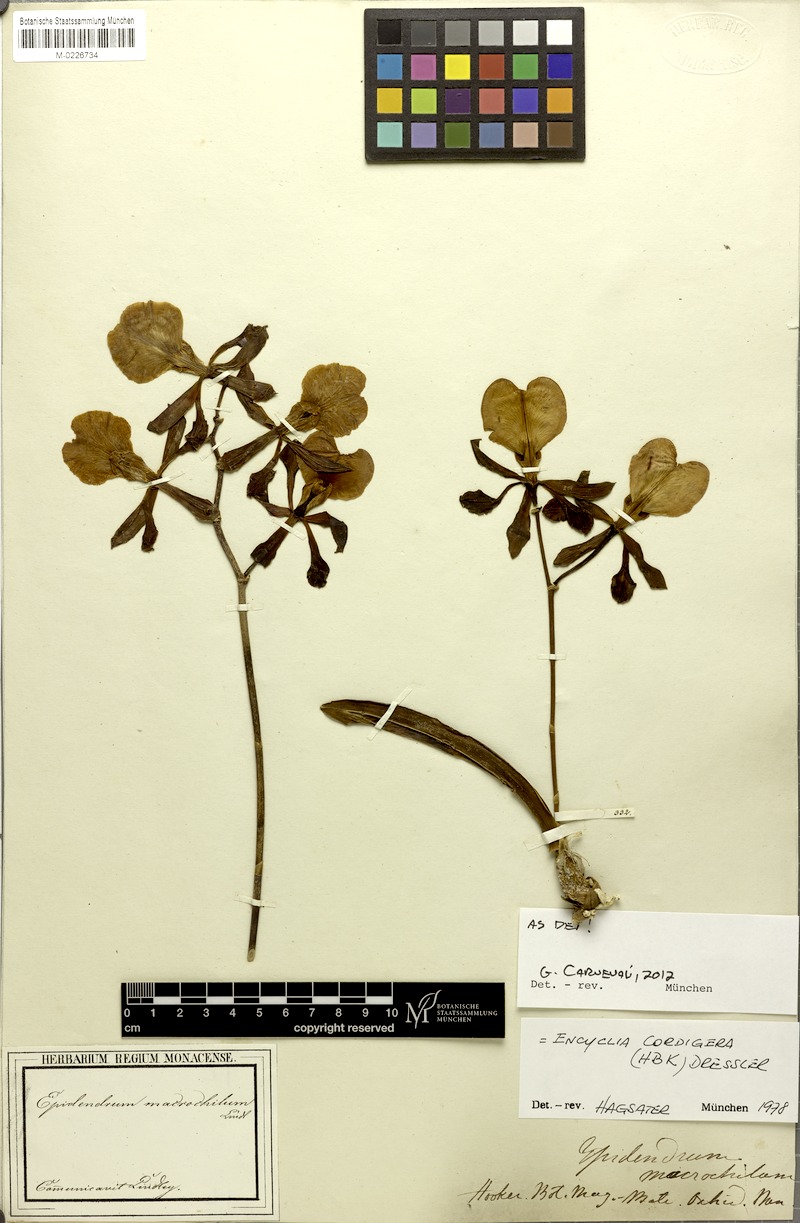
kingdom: Plantae
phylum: Tracheophyta
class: Liliopsida
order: Asparagales
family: Orchidaceae
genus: Encyclia
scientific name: Encyclia cordigera
